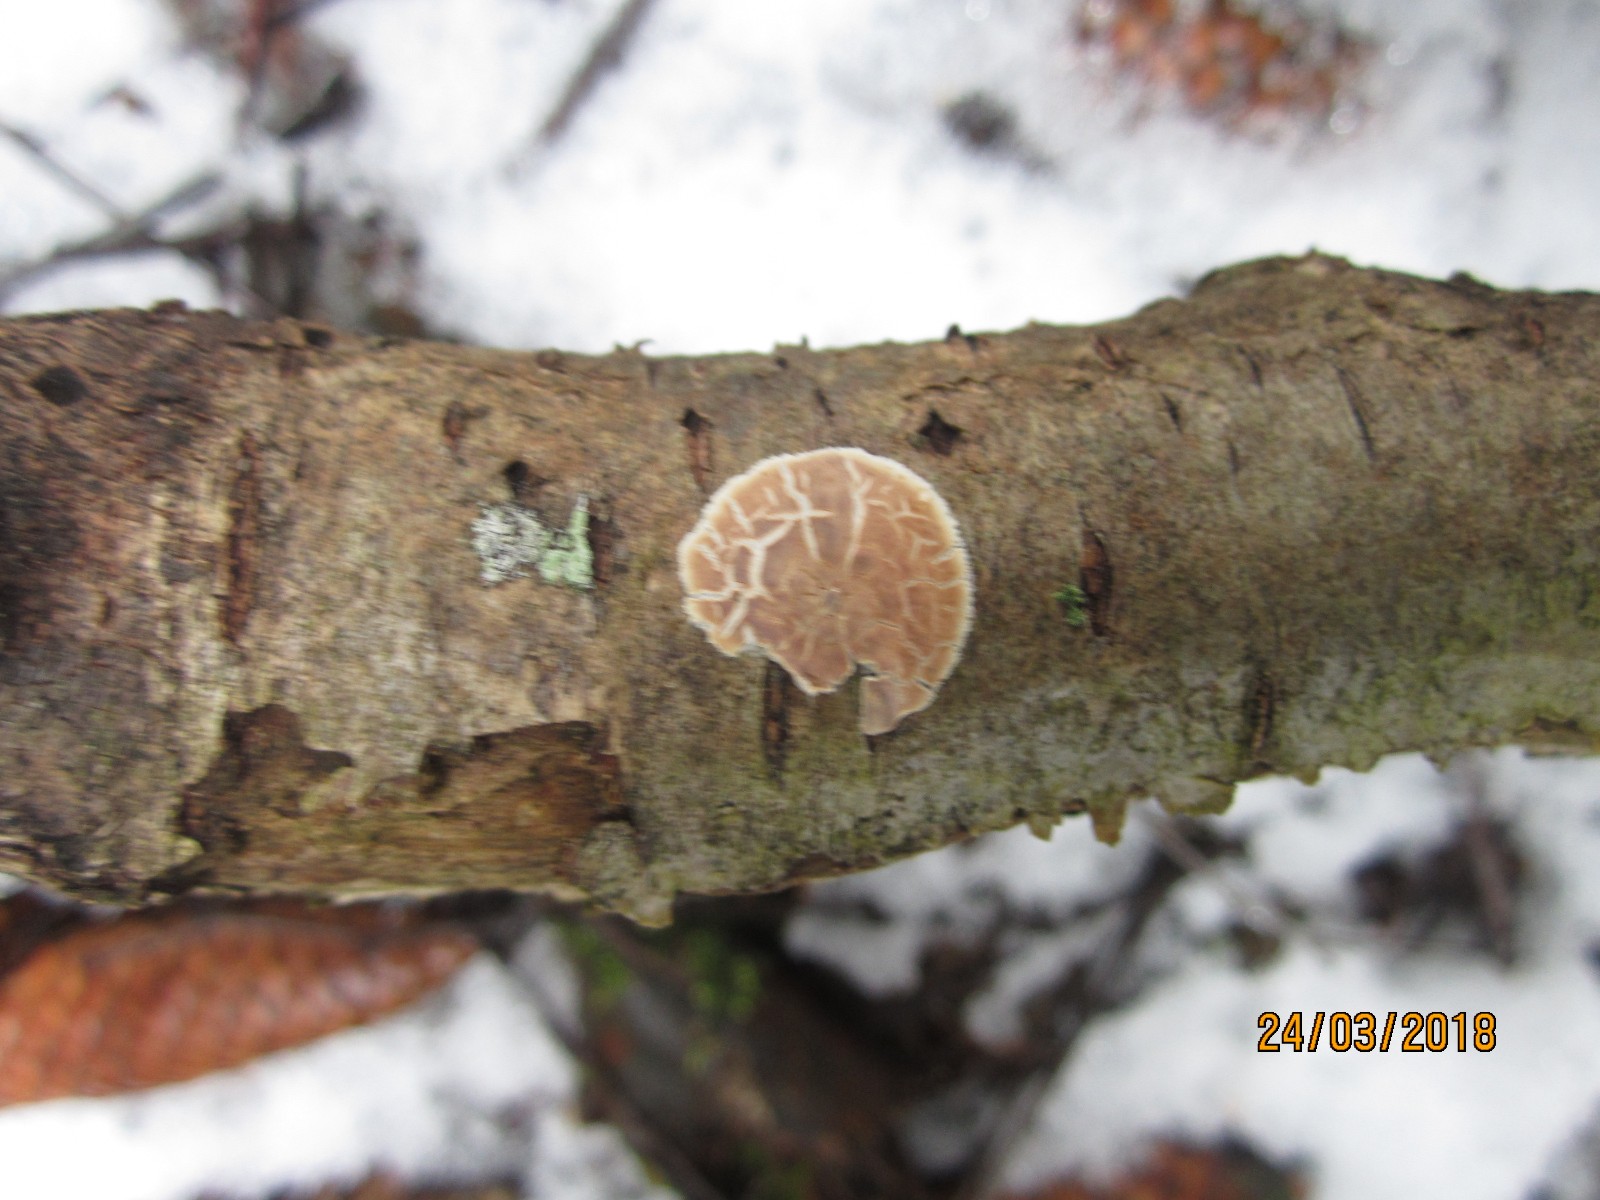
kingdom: Fungi
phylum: Basidiomycota
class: Agaricomycetes
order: Agaricales
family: Physalacriaceae
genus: Cylindrobasidium
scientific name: Cylindrobasidium evolvens
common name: sprækkehinde
